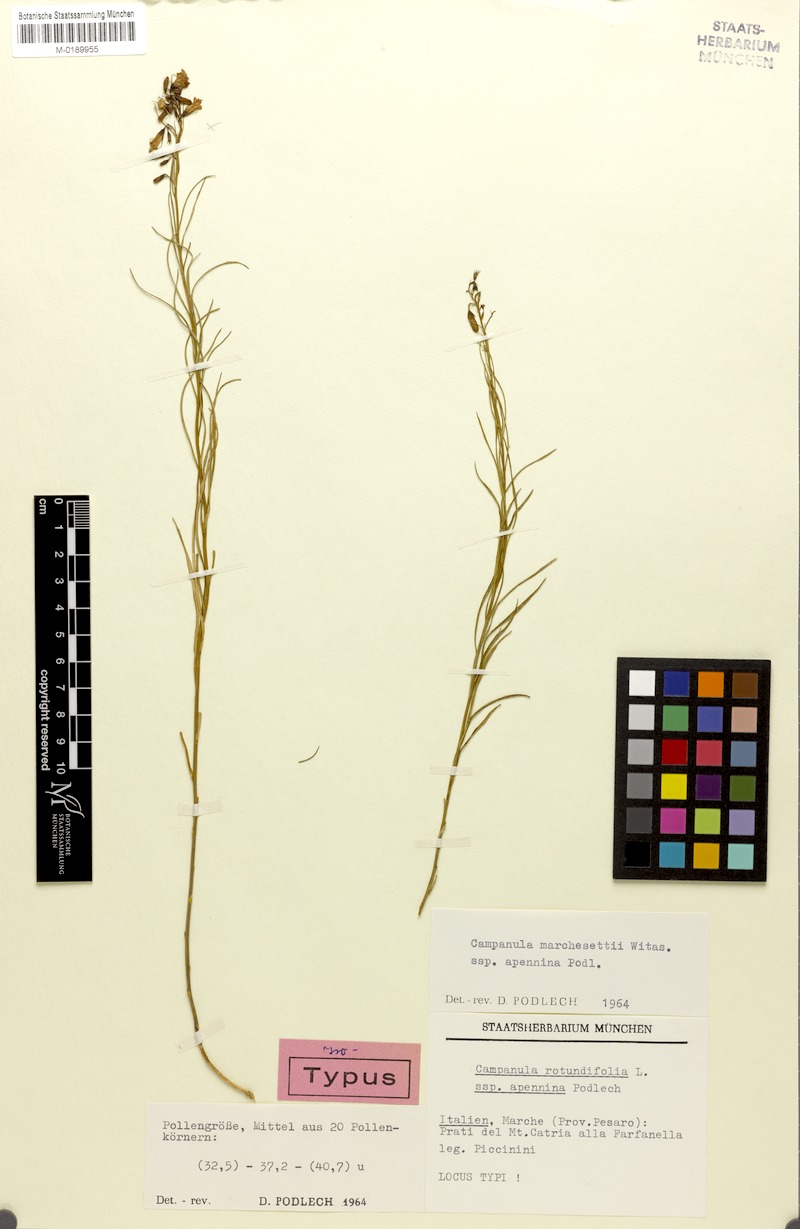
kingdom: Plantae
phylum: Tracheophyta
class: Magnoliopsida
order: Asterales
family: Campanulaceae
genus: Campanula
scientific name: Campanula micrantha
